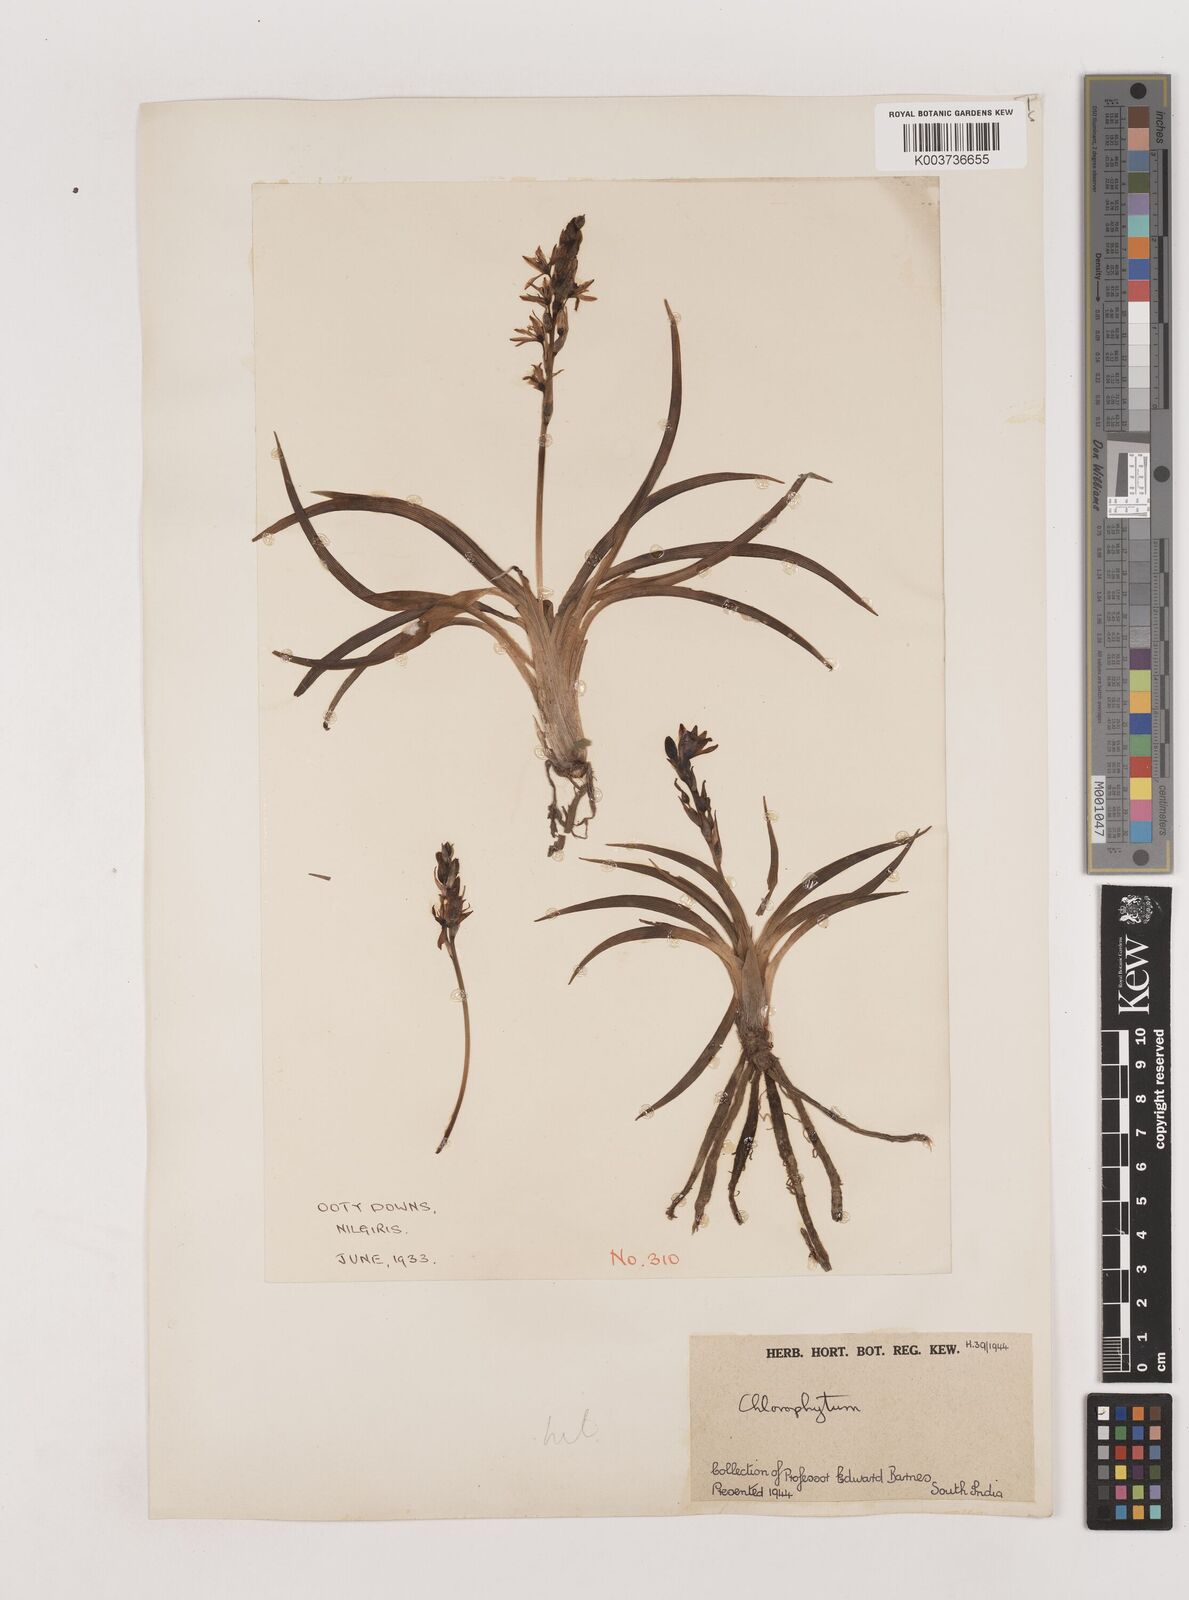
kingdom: Plantae
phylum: Tracheophyta
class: Liliopsida
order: Asparagales
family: Asparagaceae
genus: Chlorophytum
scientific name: Chlorophytum
